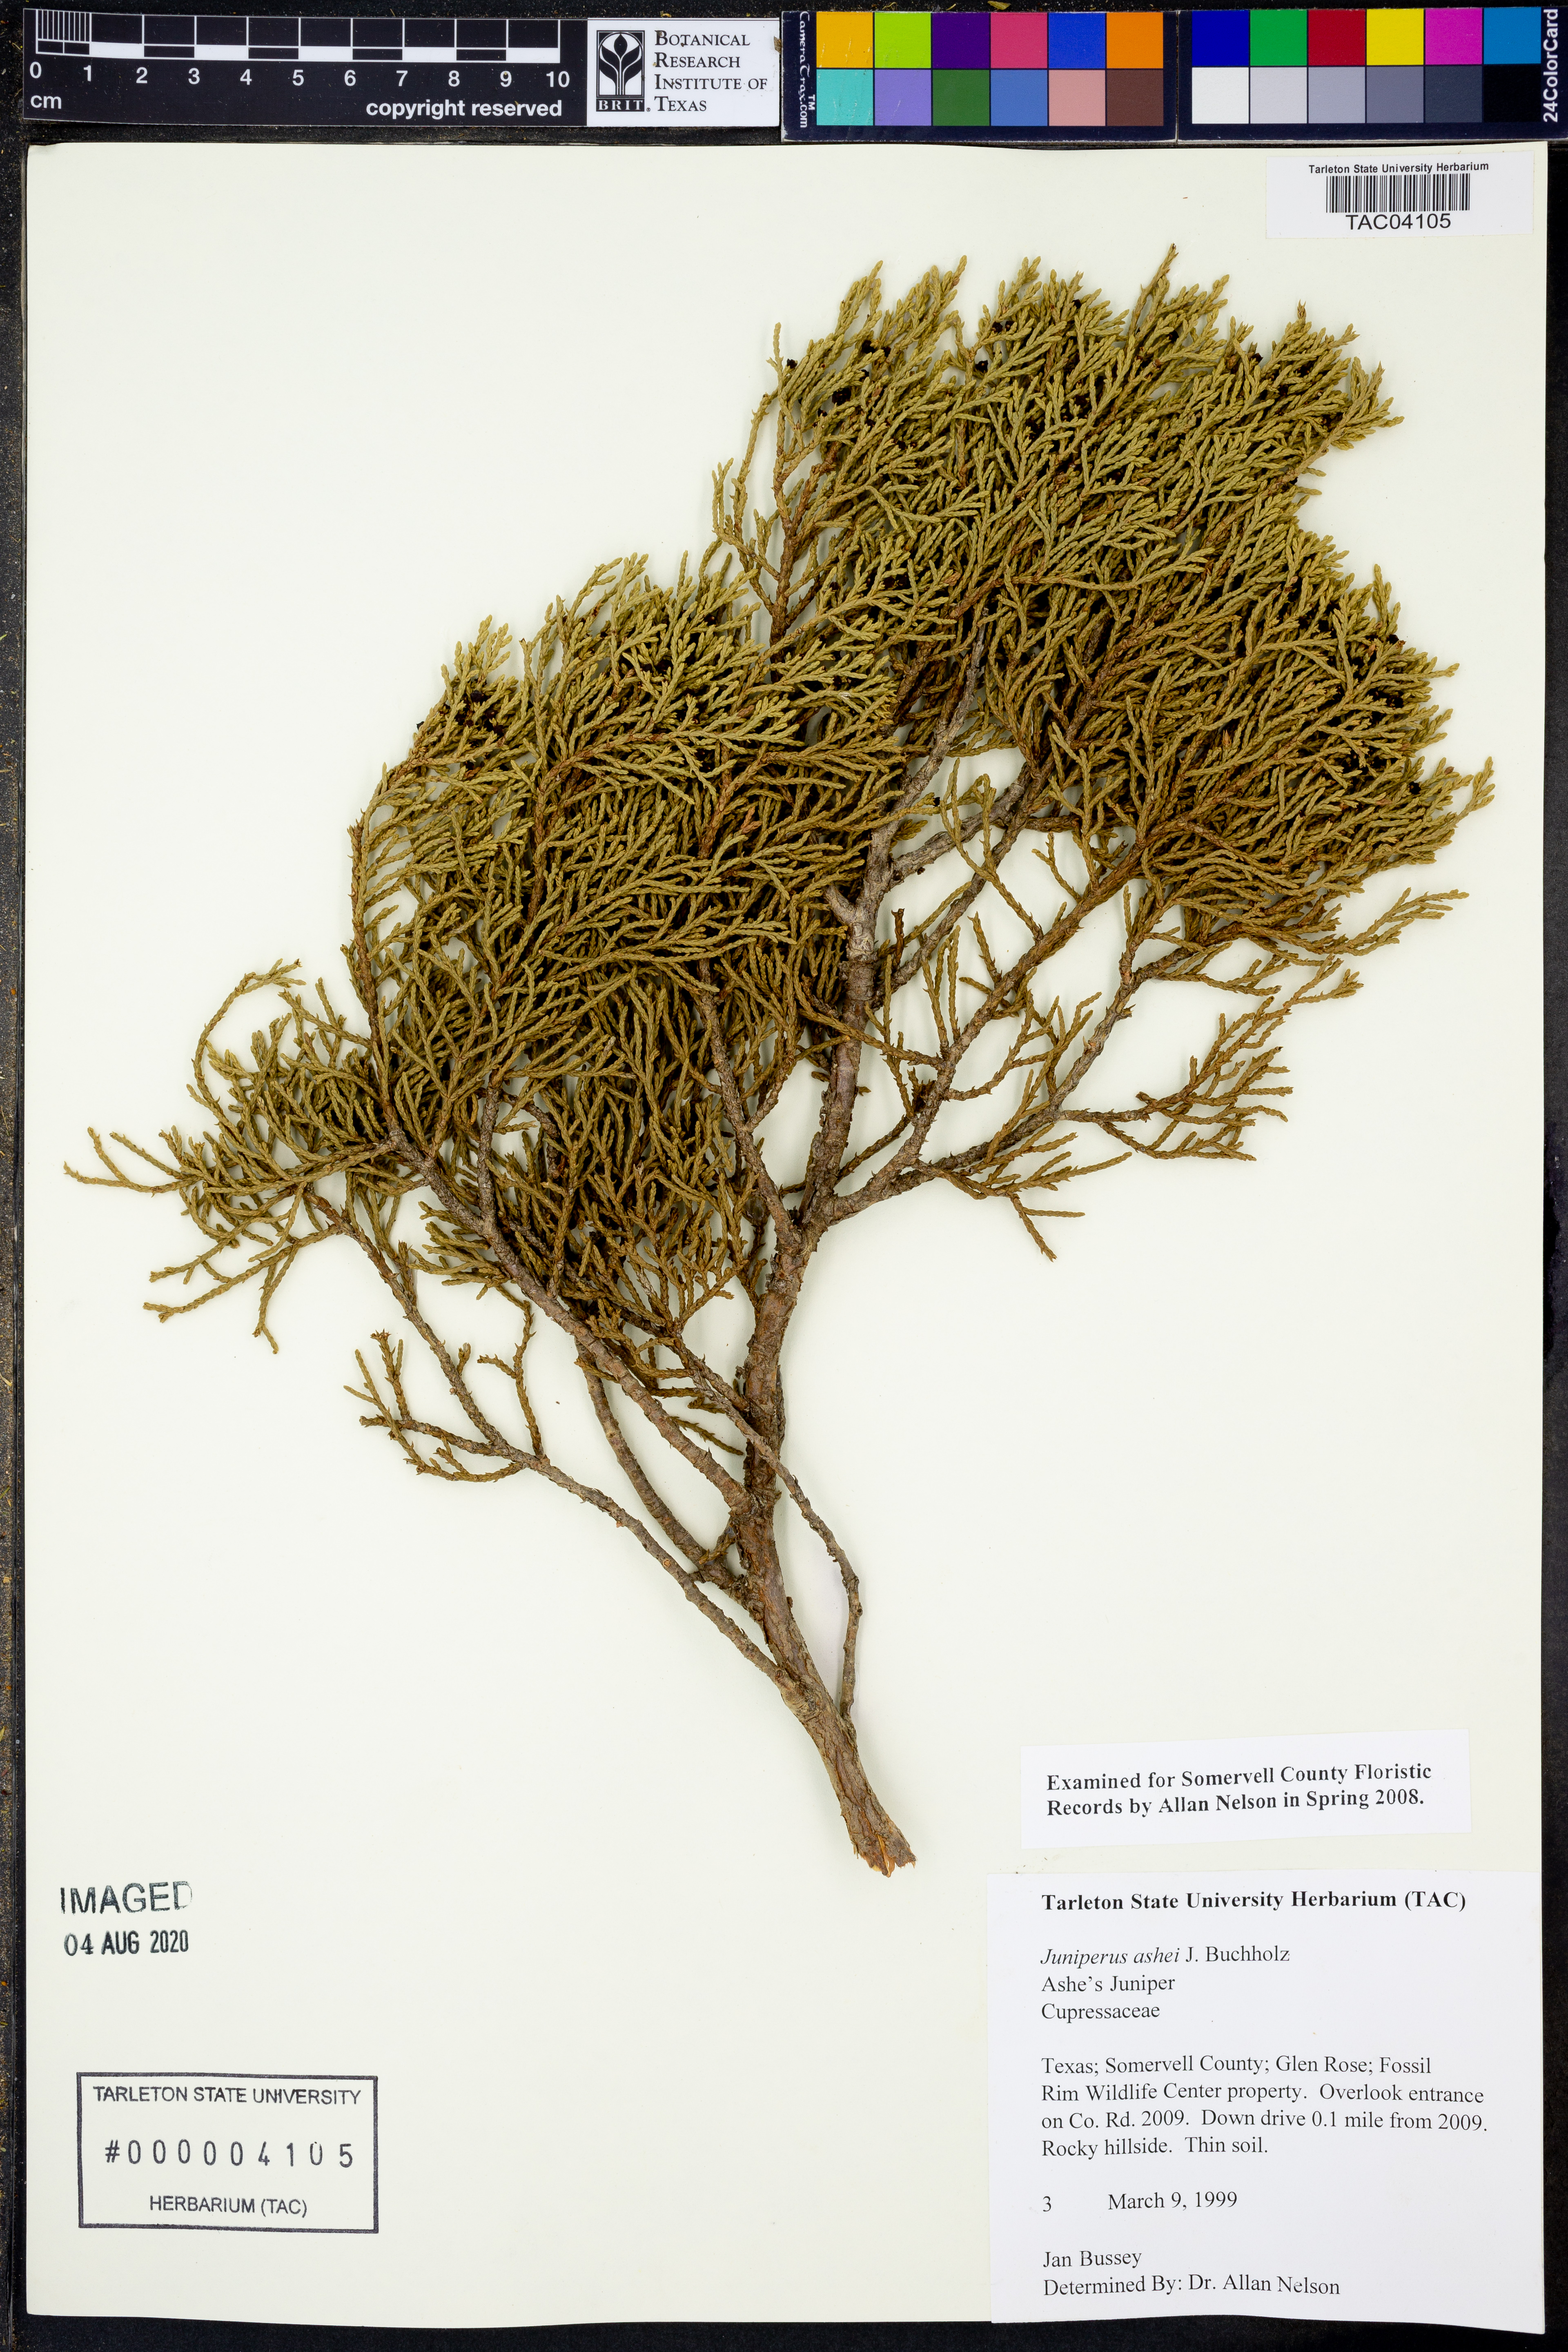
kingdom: Plantae
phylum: Tracheophyta
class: Pinopsida
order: Pinales
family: Cupressaceae
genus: Juniperus
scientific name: Juniperus ashei
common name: Mexican juniper
